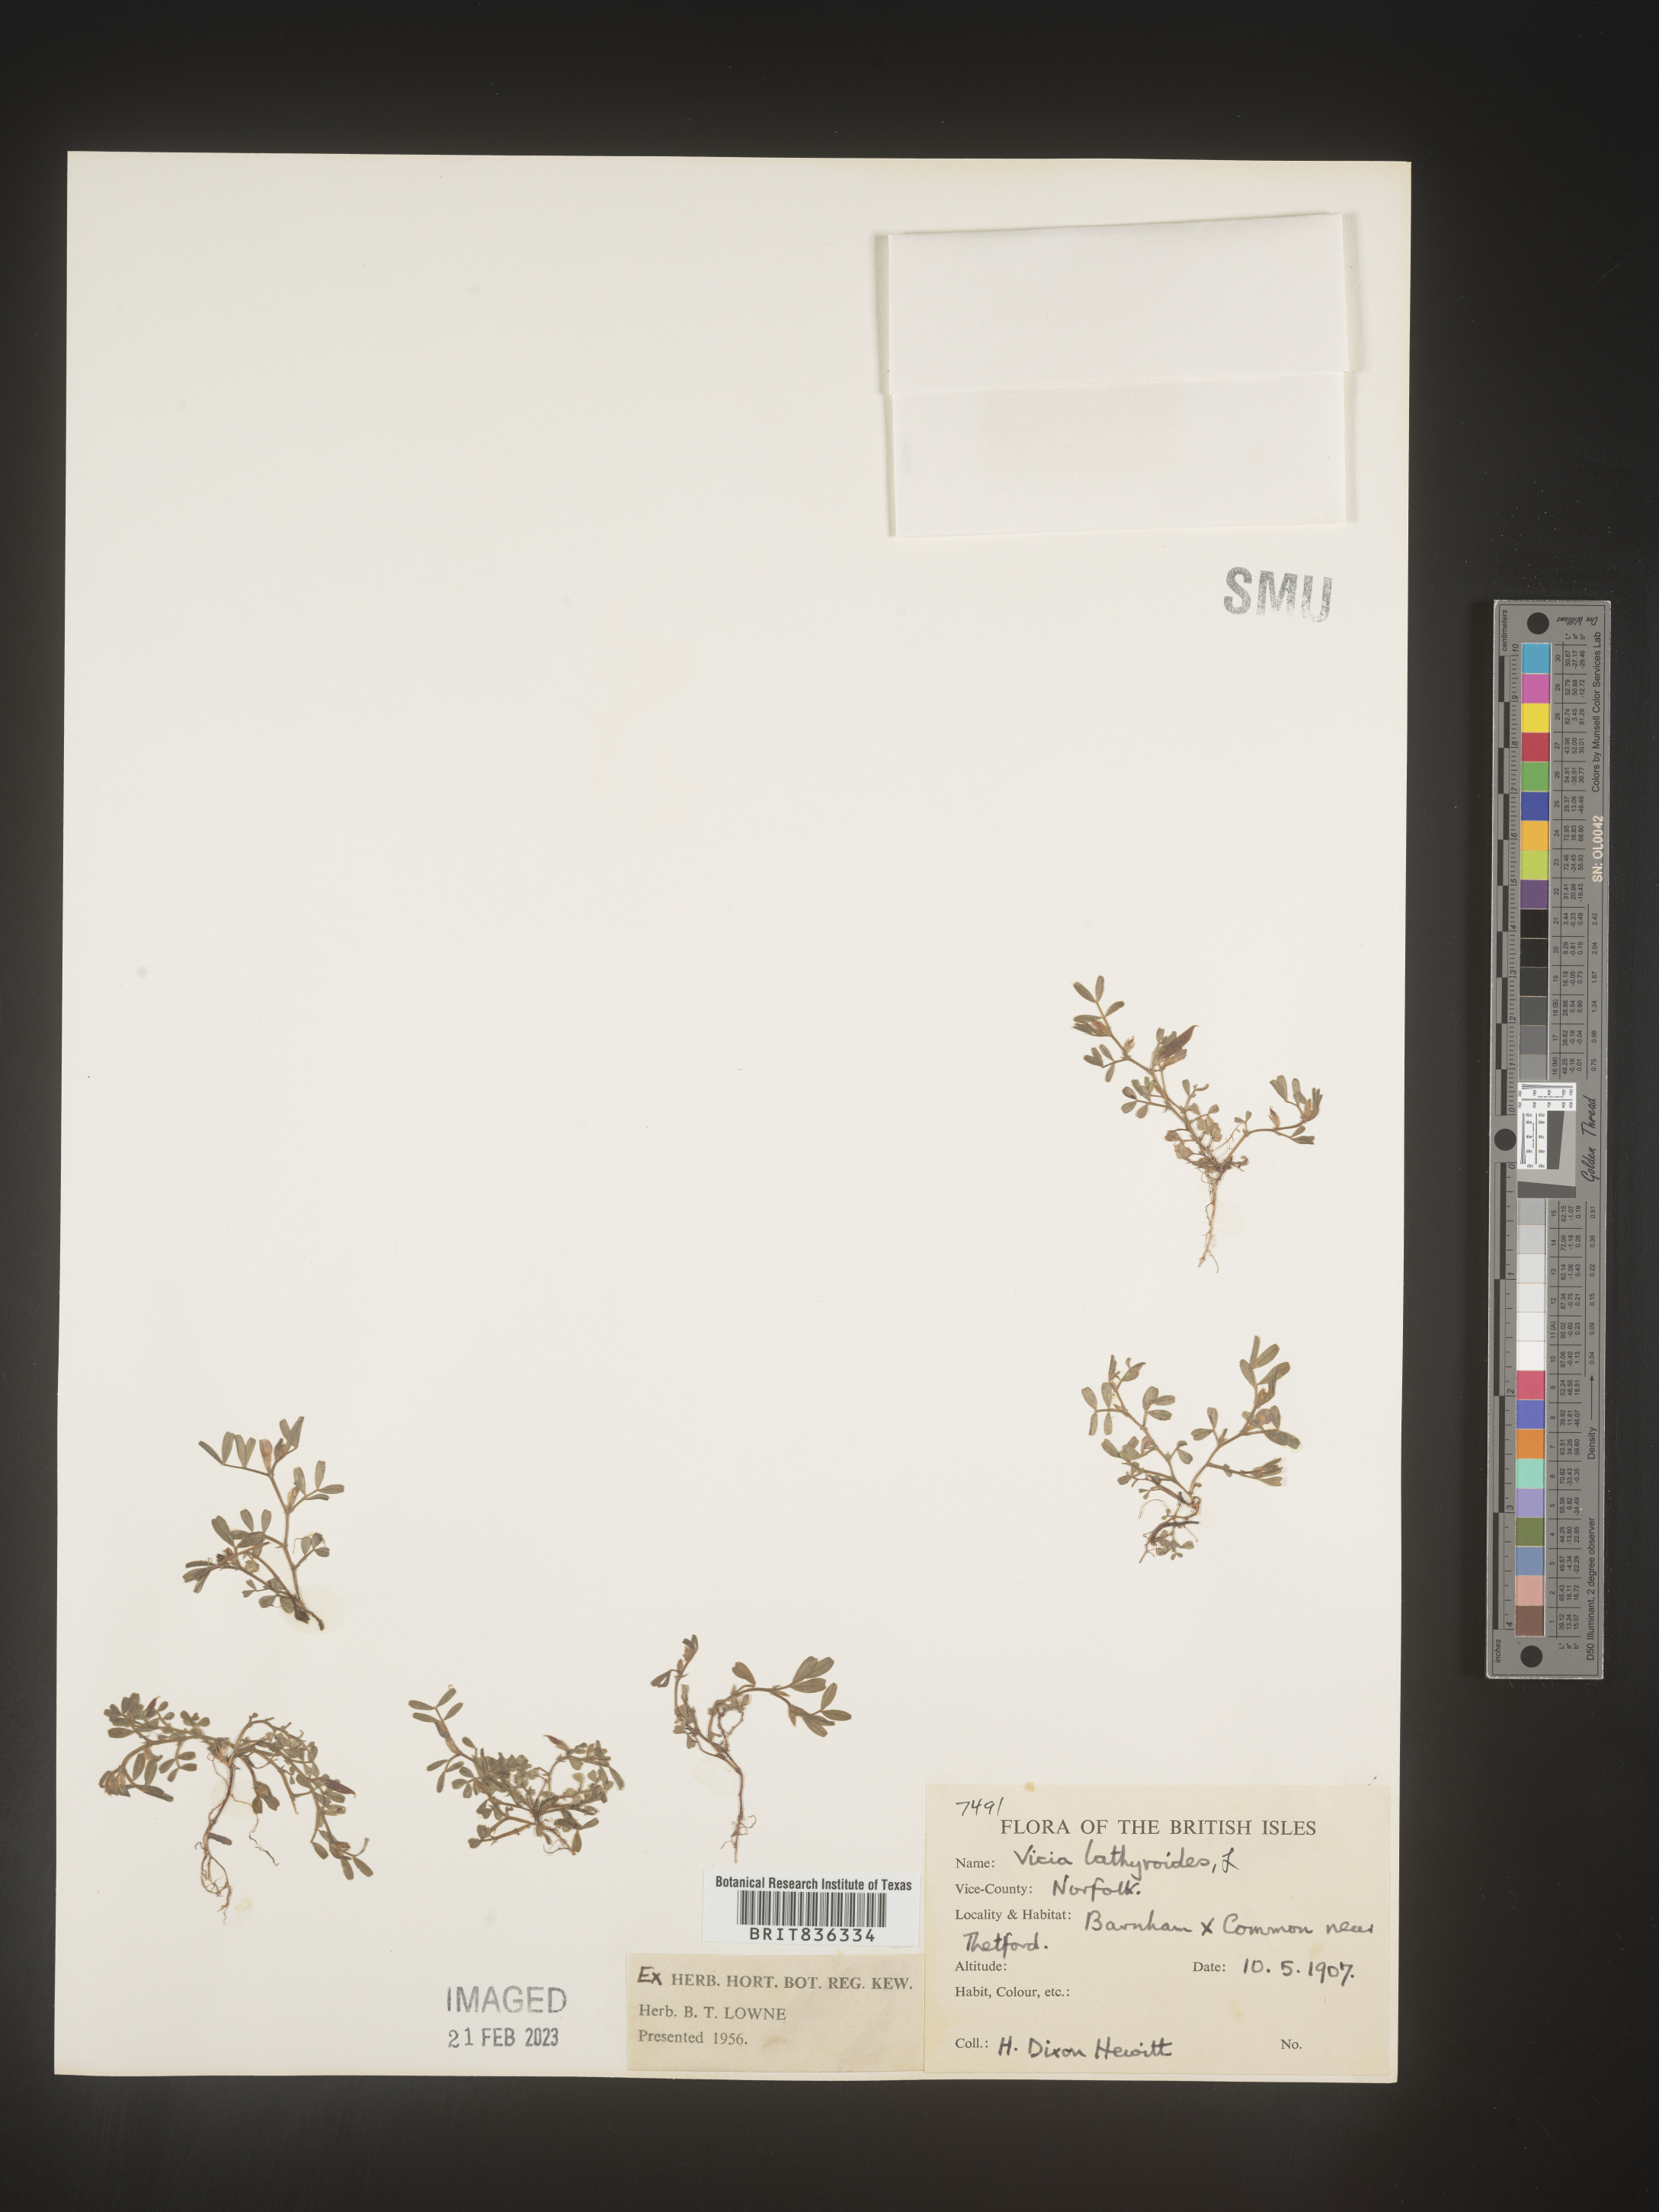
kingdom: Plantae
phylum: Tracheophyta
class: Magnoliopsida
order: Fabales
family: Fabaceae
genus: Vicia
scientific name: Vicia
